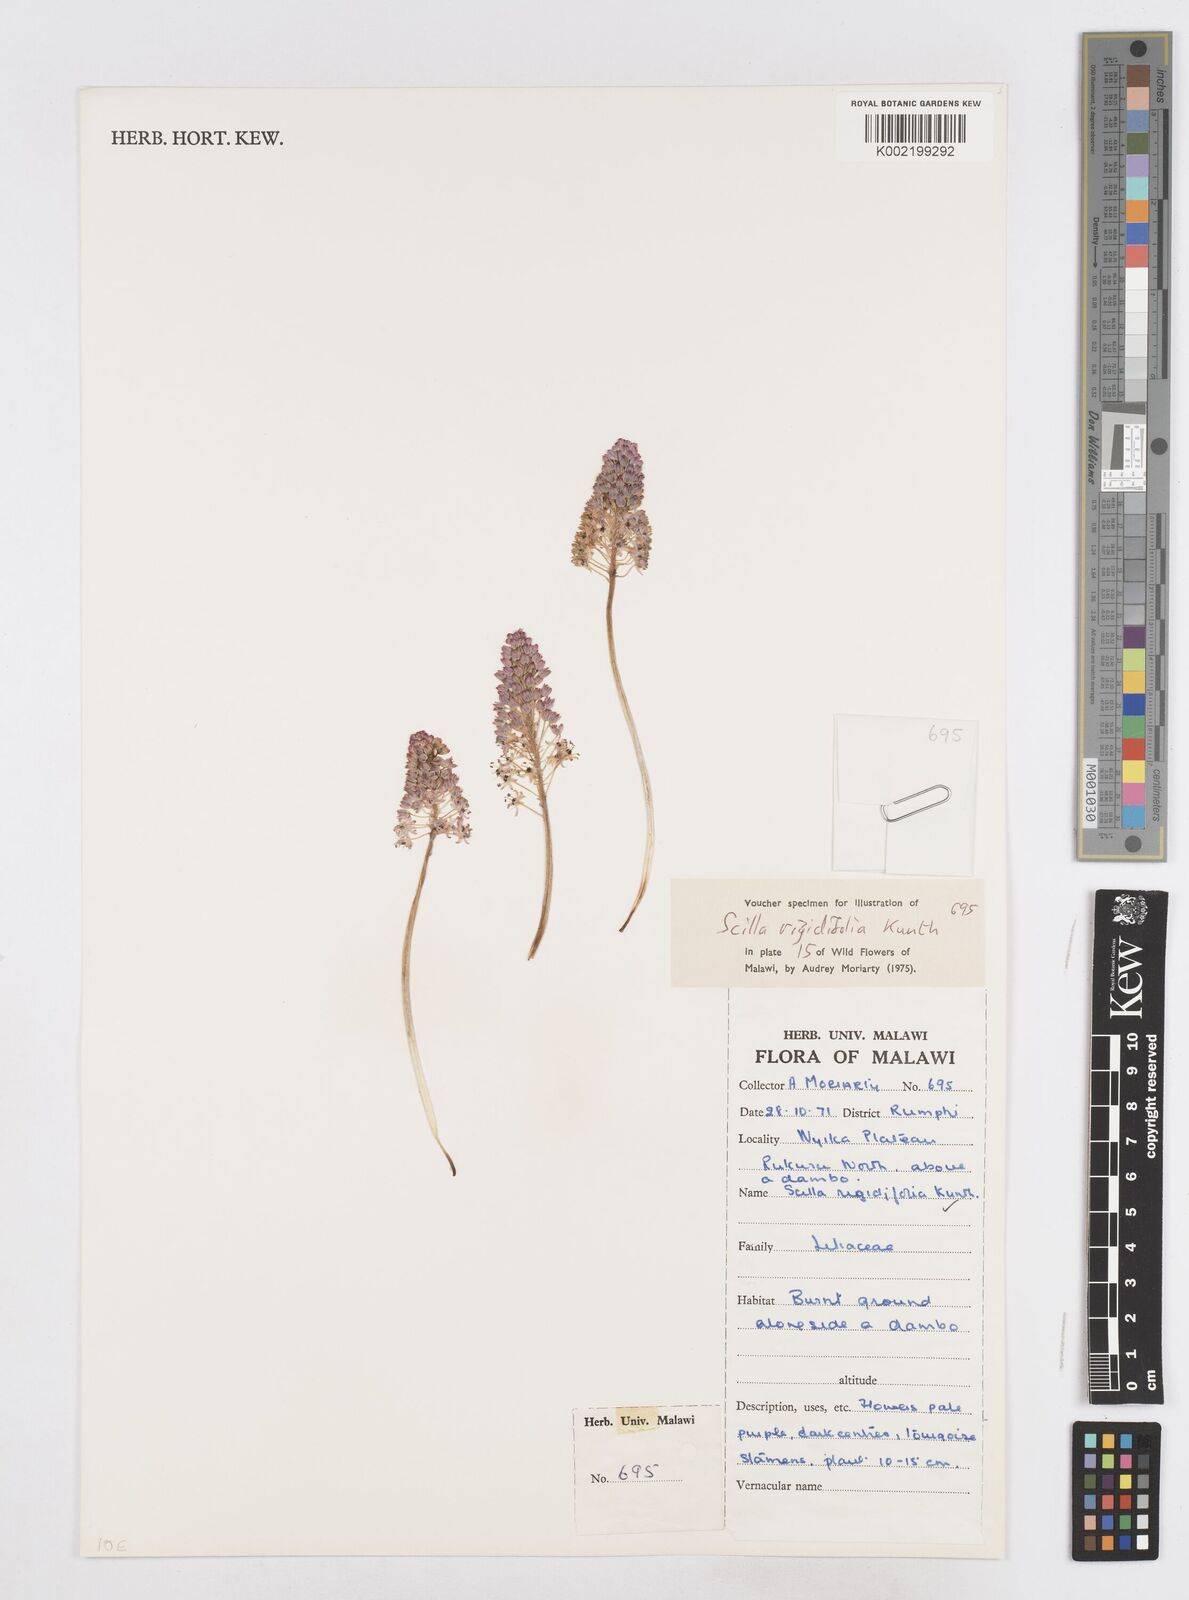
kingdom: Plantae
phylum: Tracheophyta
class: Liliopsida
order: Asparagales
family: Asparagaceae
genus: Schizocarphus
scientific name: Schizocarphus nervosus
